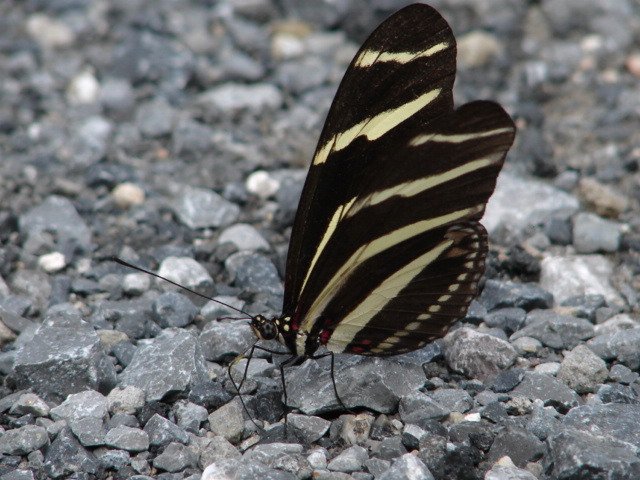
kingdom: Animalia
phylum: Arthropoda
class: Insecta
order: Lepidoptera
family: Nymphalidae
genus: Heliconius
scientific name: Heliconius charithonia
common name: Zebra Longwing
